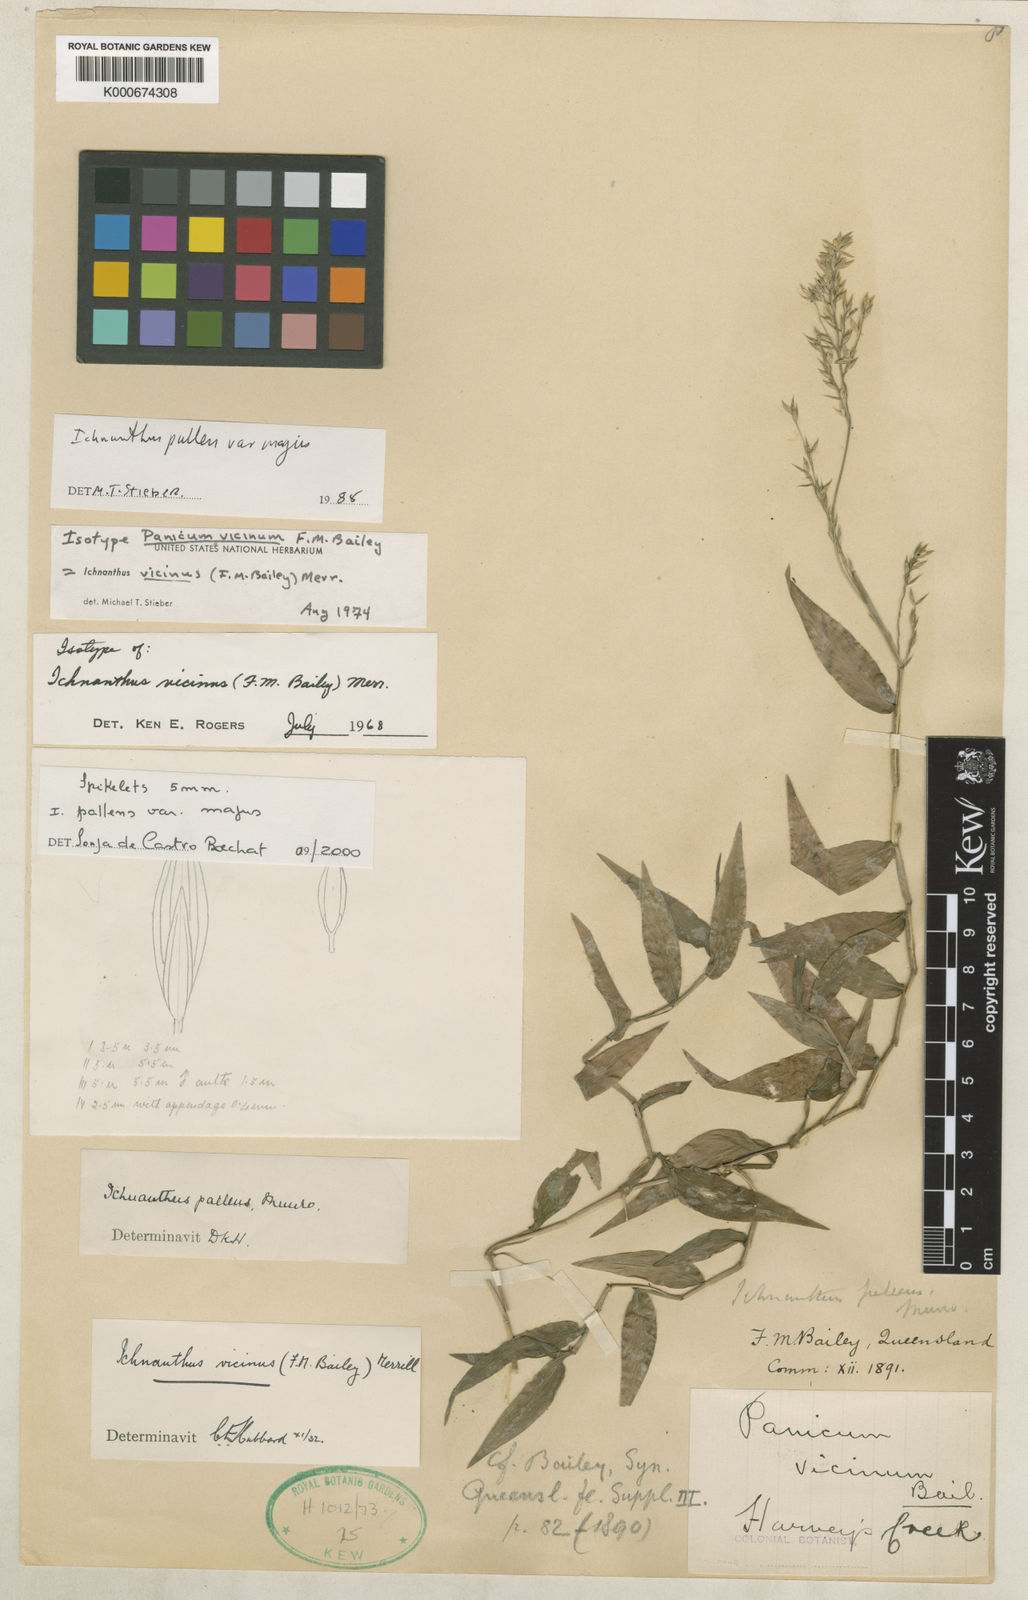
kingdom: Plantae
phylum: Tracheophyta
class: Liliopsida
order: Poales
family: Poaceae
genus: Ichnanthus
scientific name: Ichnanthus pallens
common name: Water grass
